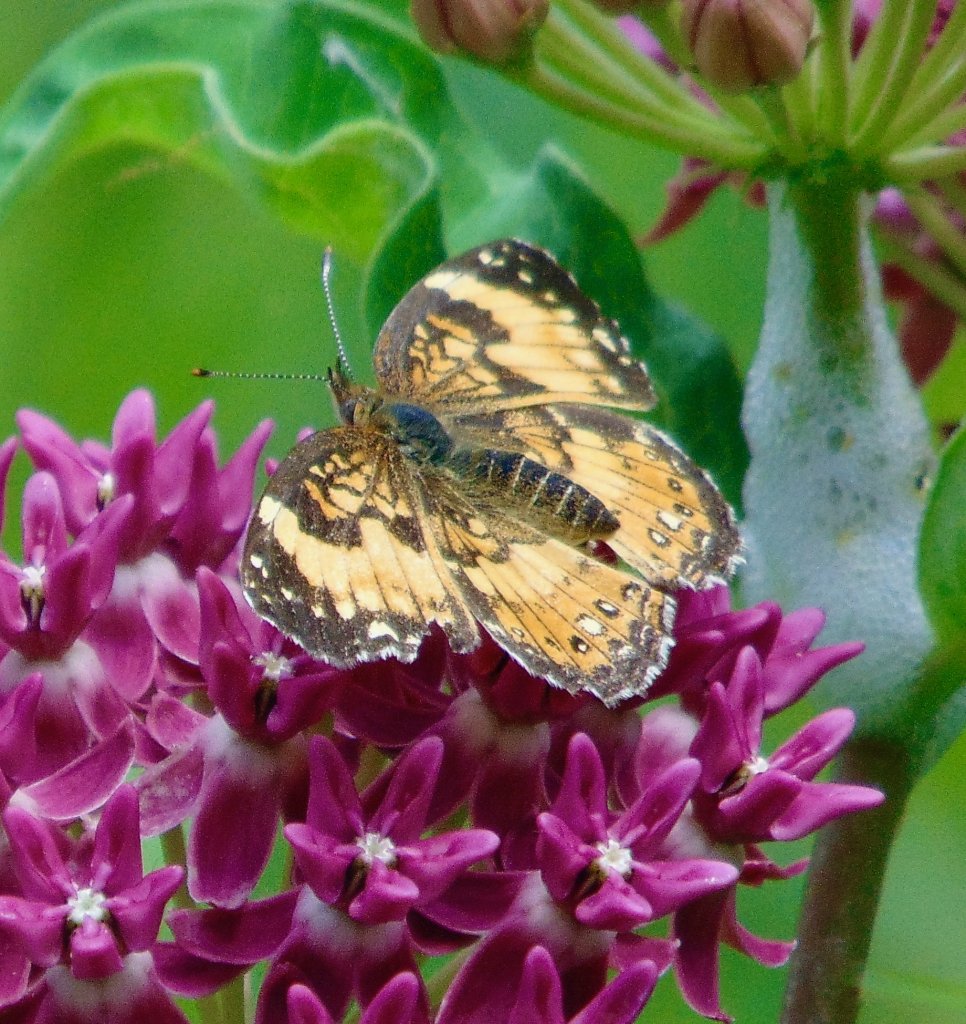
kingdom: Animalia
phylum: Arthropoda
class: Insecta
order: Lepidoptera
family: Nymphalidae
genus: Chlosyne
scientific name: Chlosyne nycteis
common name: Silvery Checkerspot
